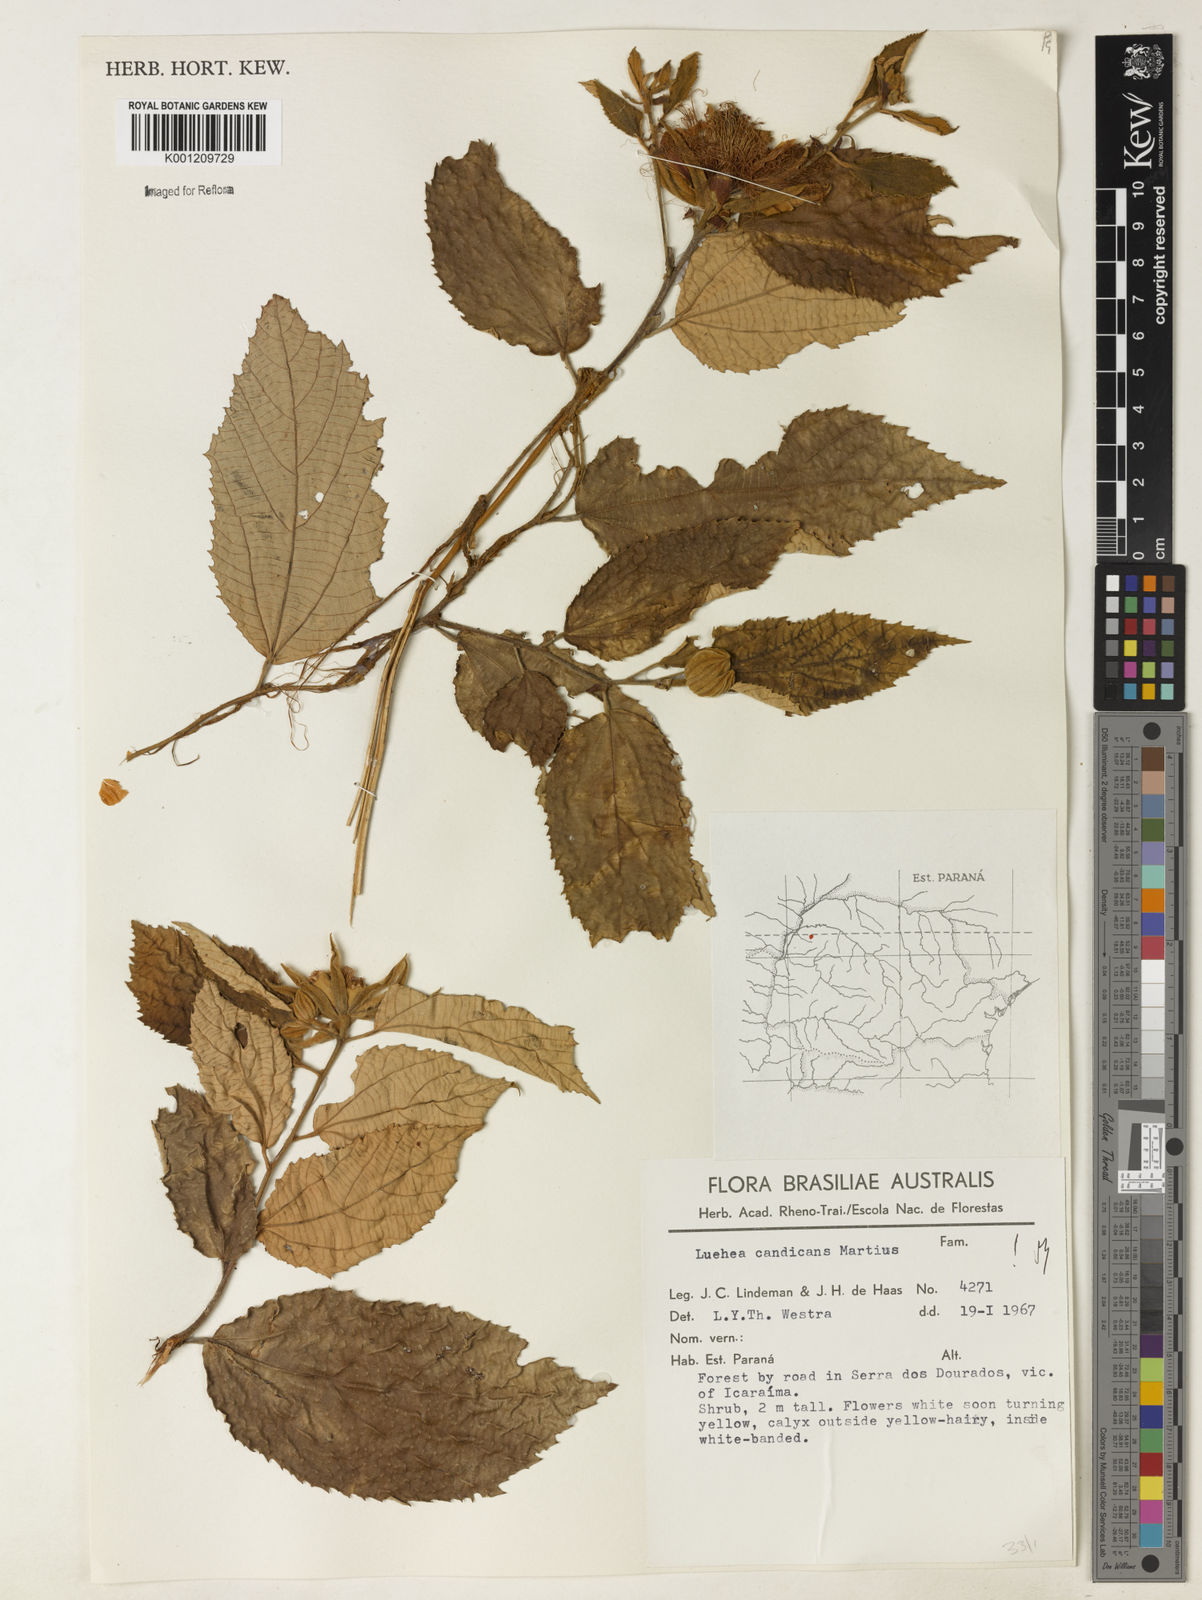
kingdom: Plantae
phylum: Tracheophyta
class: Magnoliopsida
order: Malvales
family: Malvaceae
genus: Luehea
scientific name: Luehea candicans
